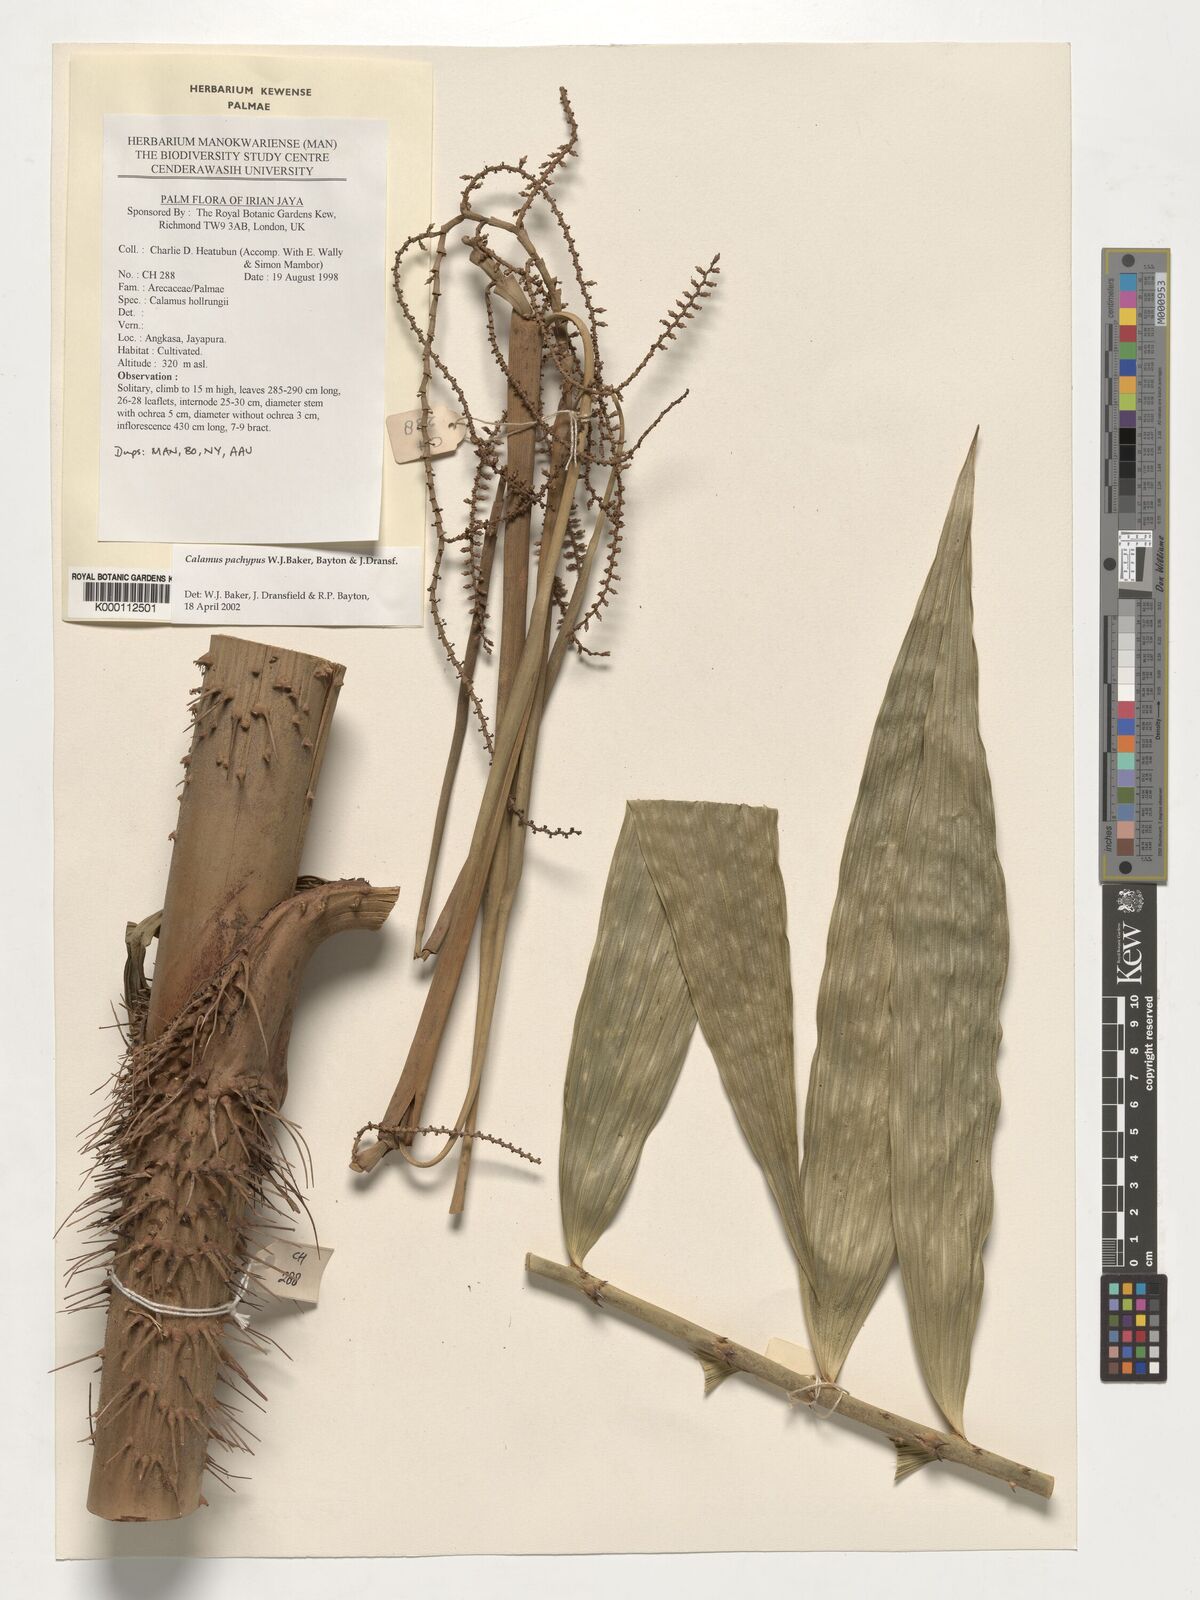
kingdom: Plantae
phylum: Tracheophyta
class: Liliopsida
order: Arecales
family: Arecaceae
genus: Calamus
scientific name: Calamus
